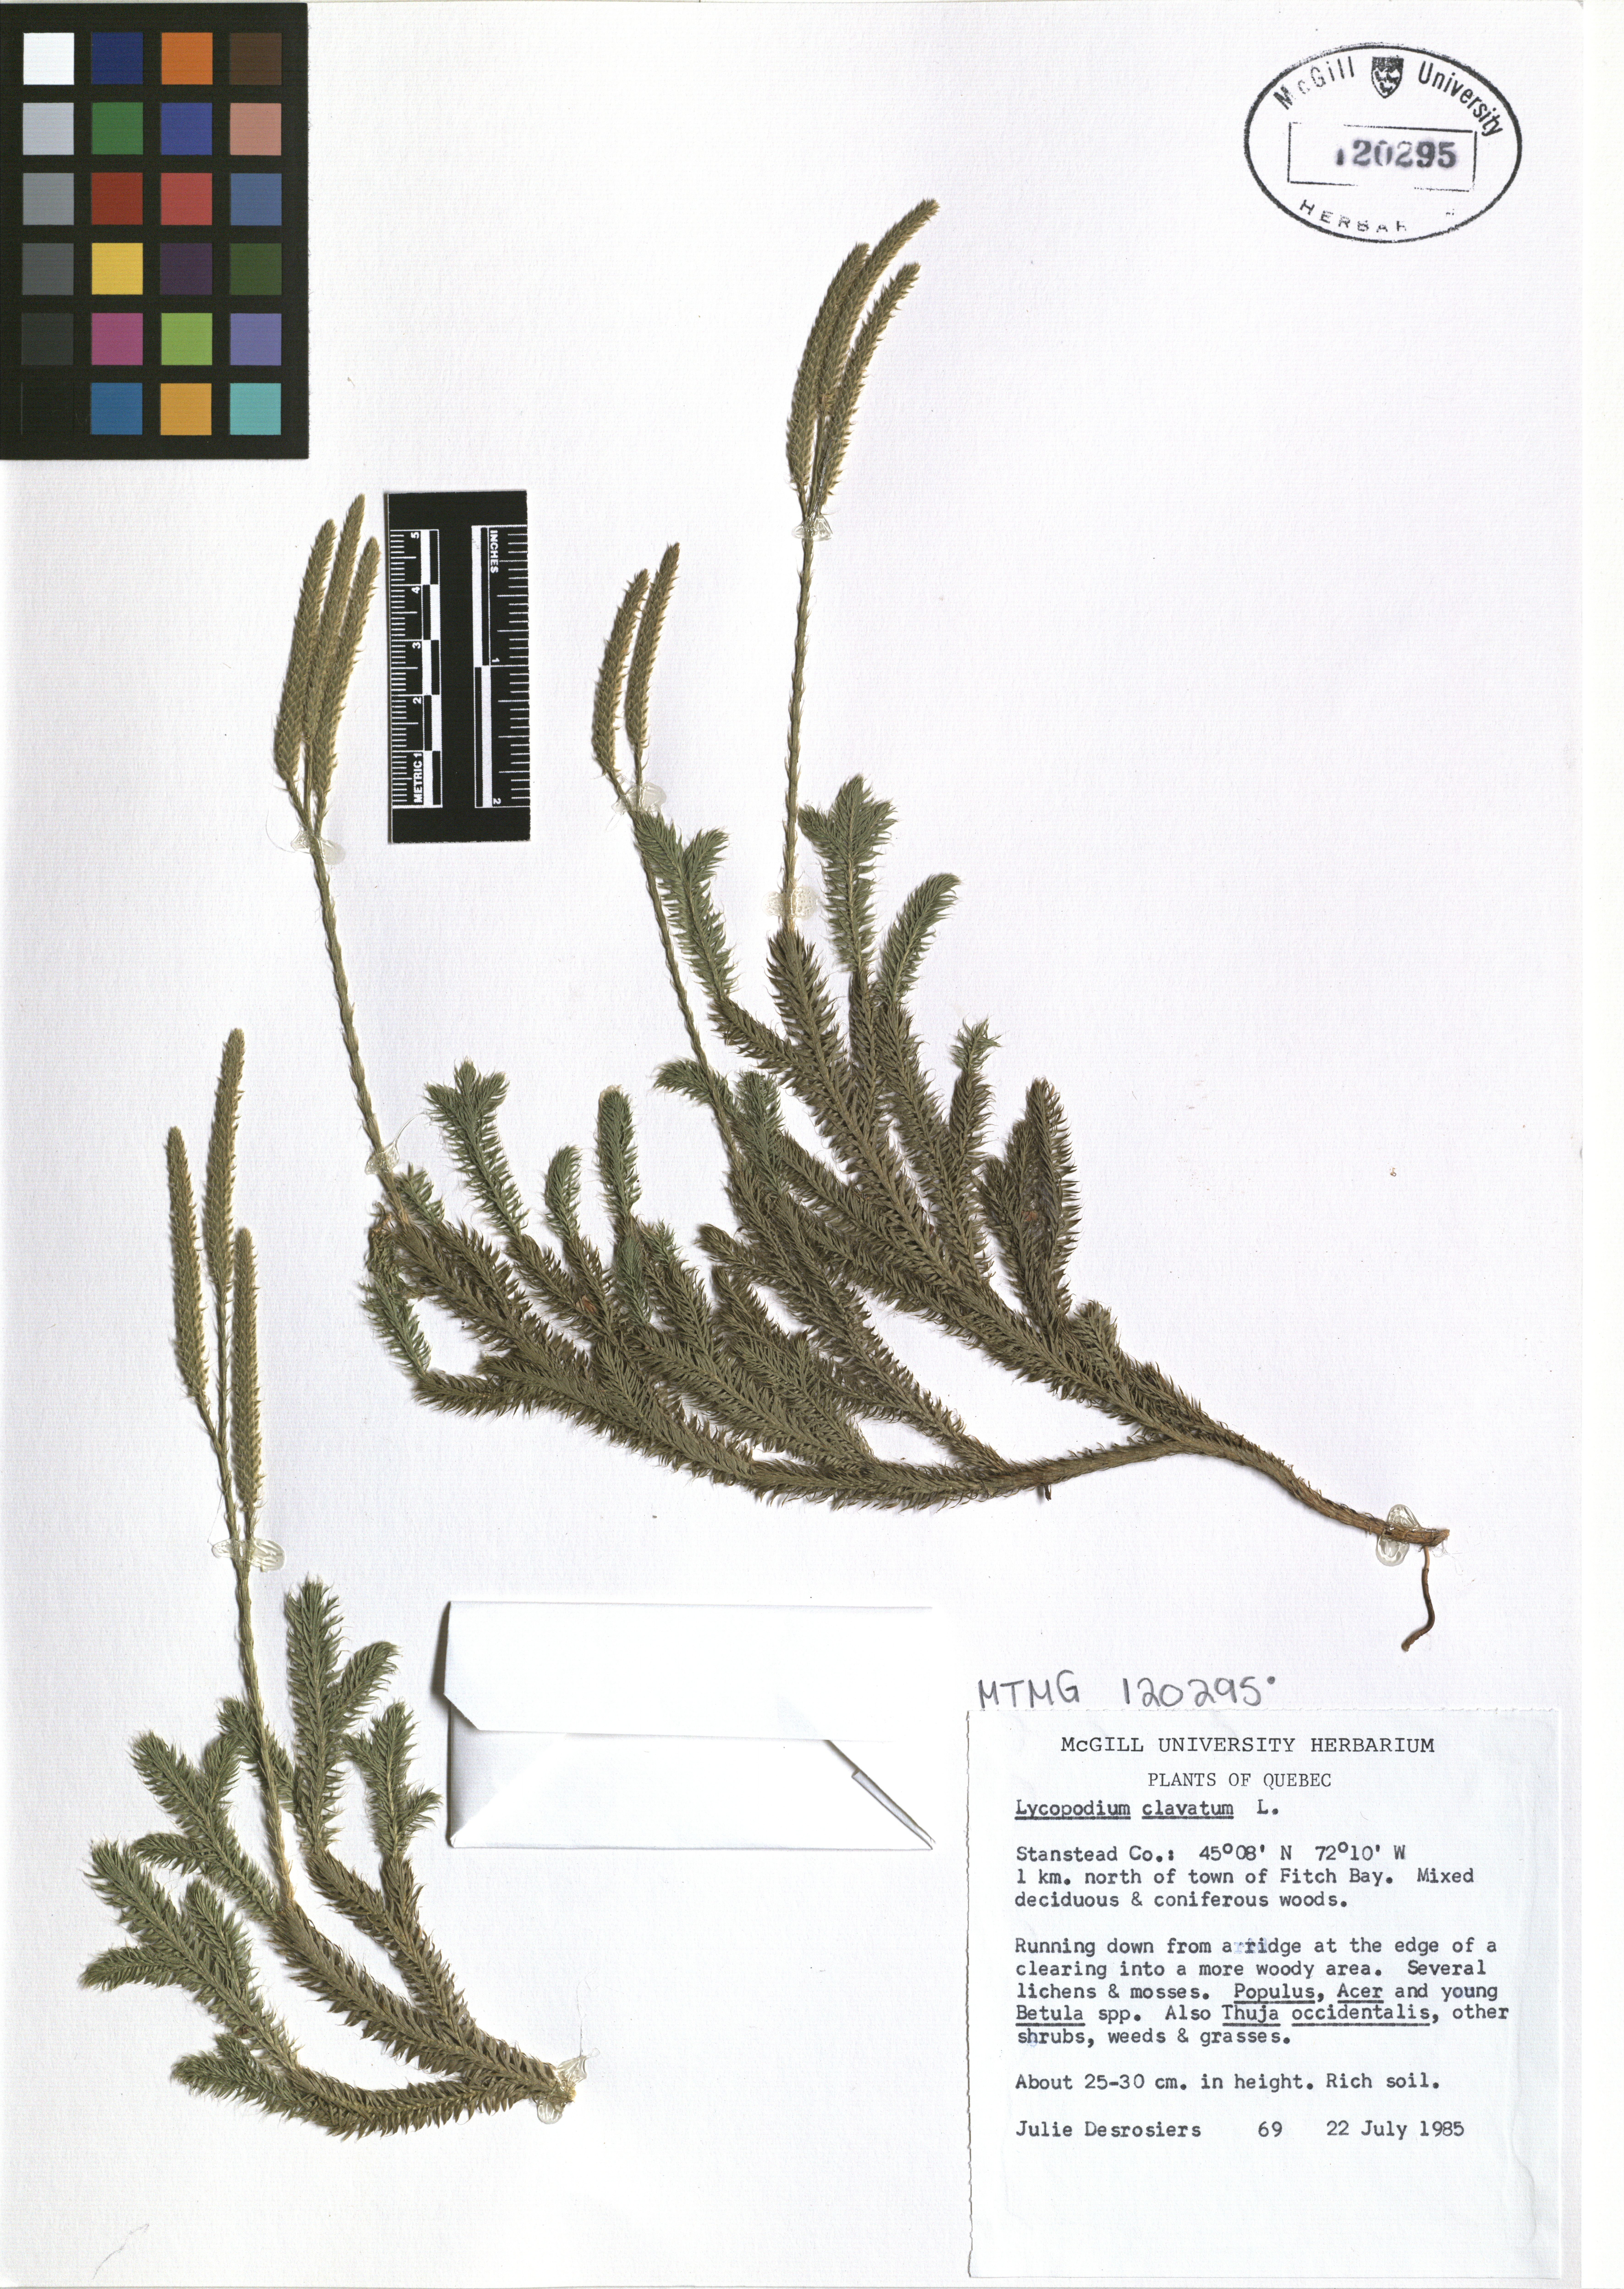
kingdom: Plantae
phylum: Tracheophyta
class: Lycopodiopsida
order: Lycopodiales
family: Lycopodiaceae
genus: Lycopodium
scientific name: Lycopodium clavatum
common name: Stag's-horn clubmoss
